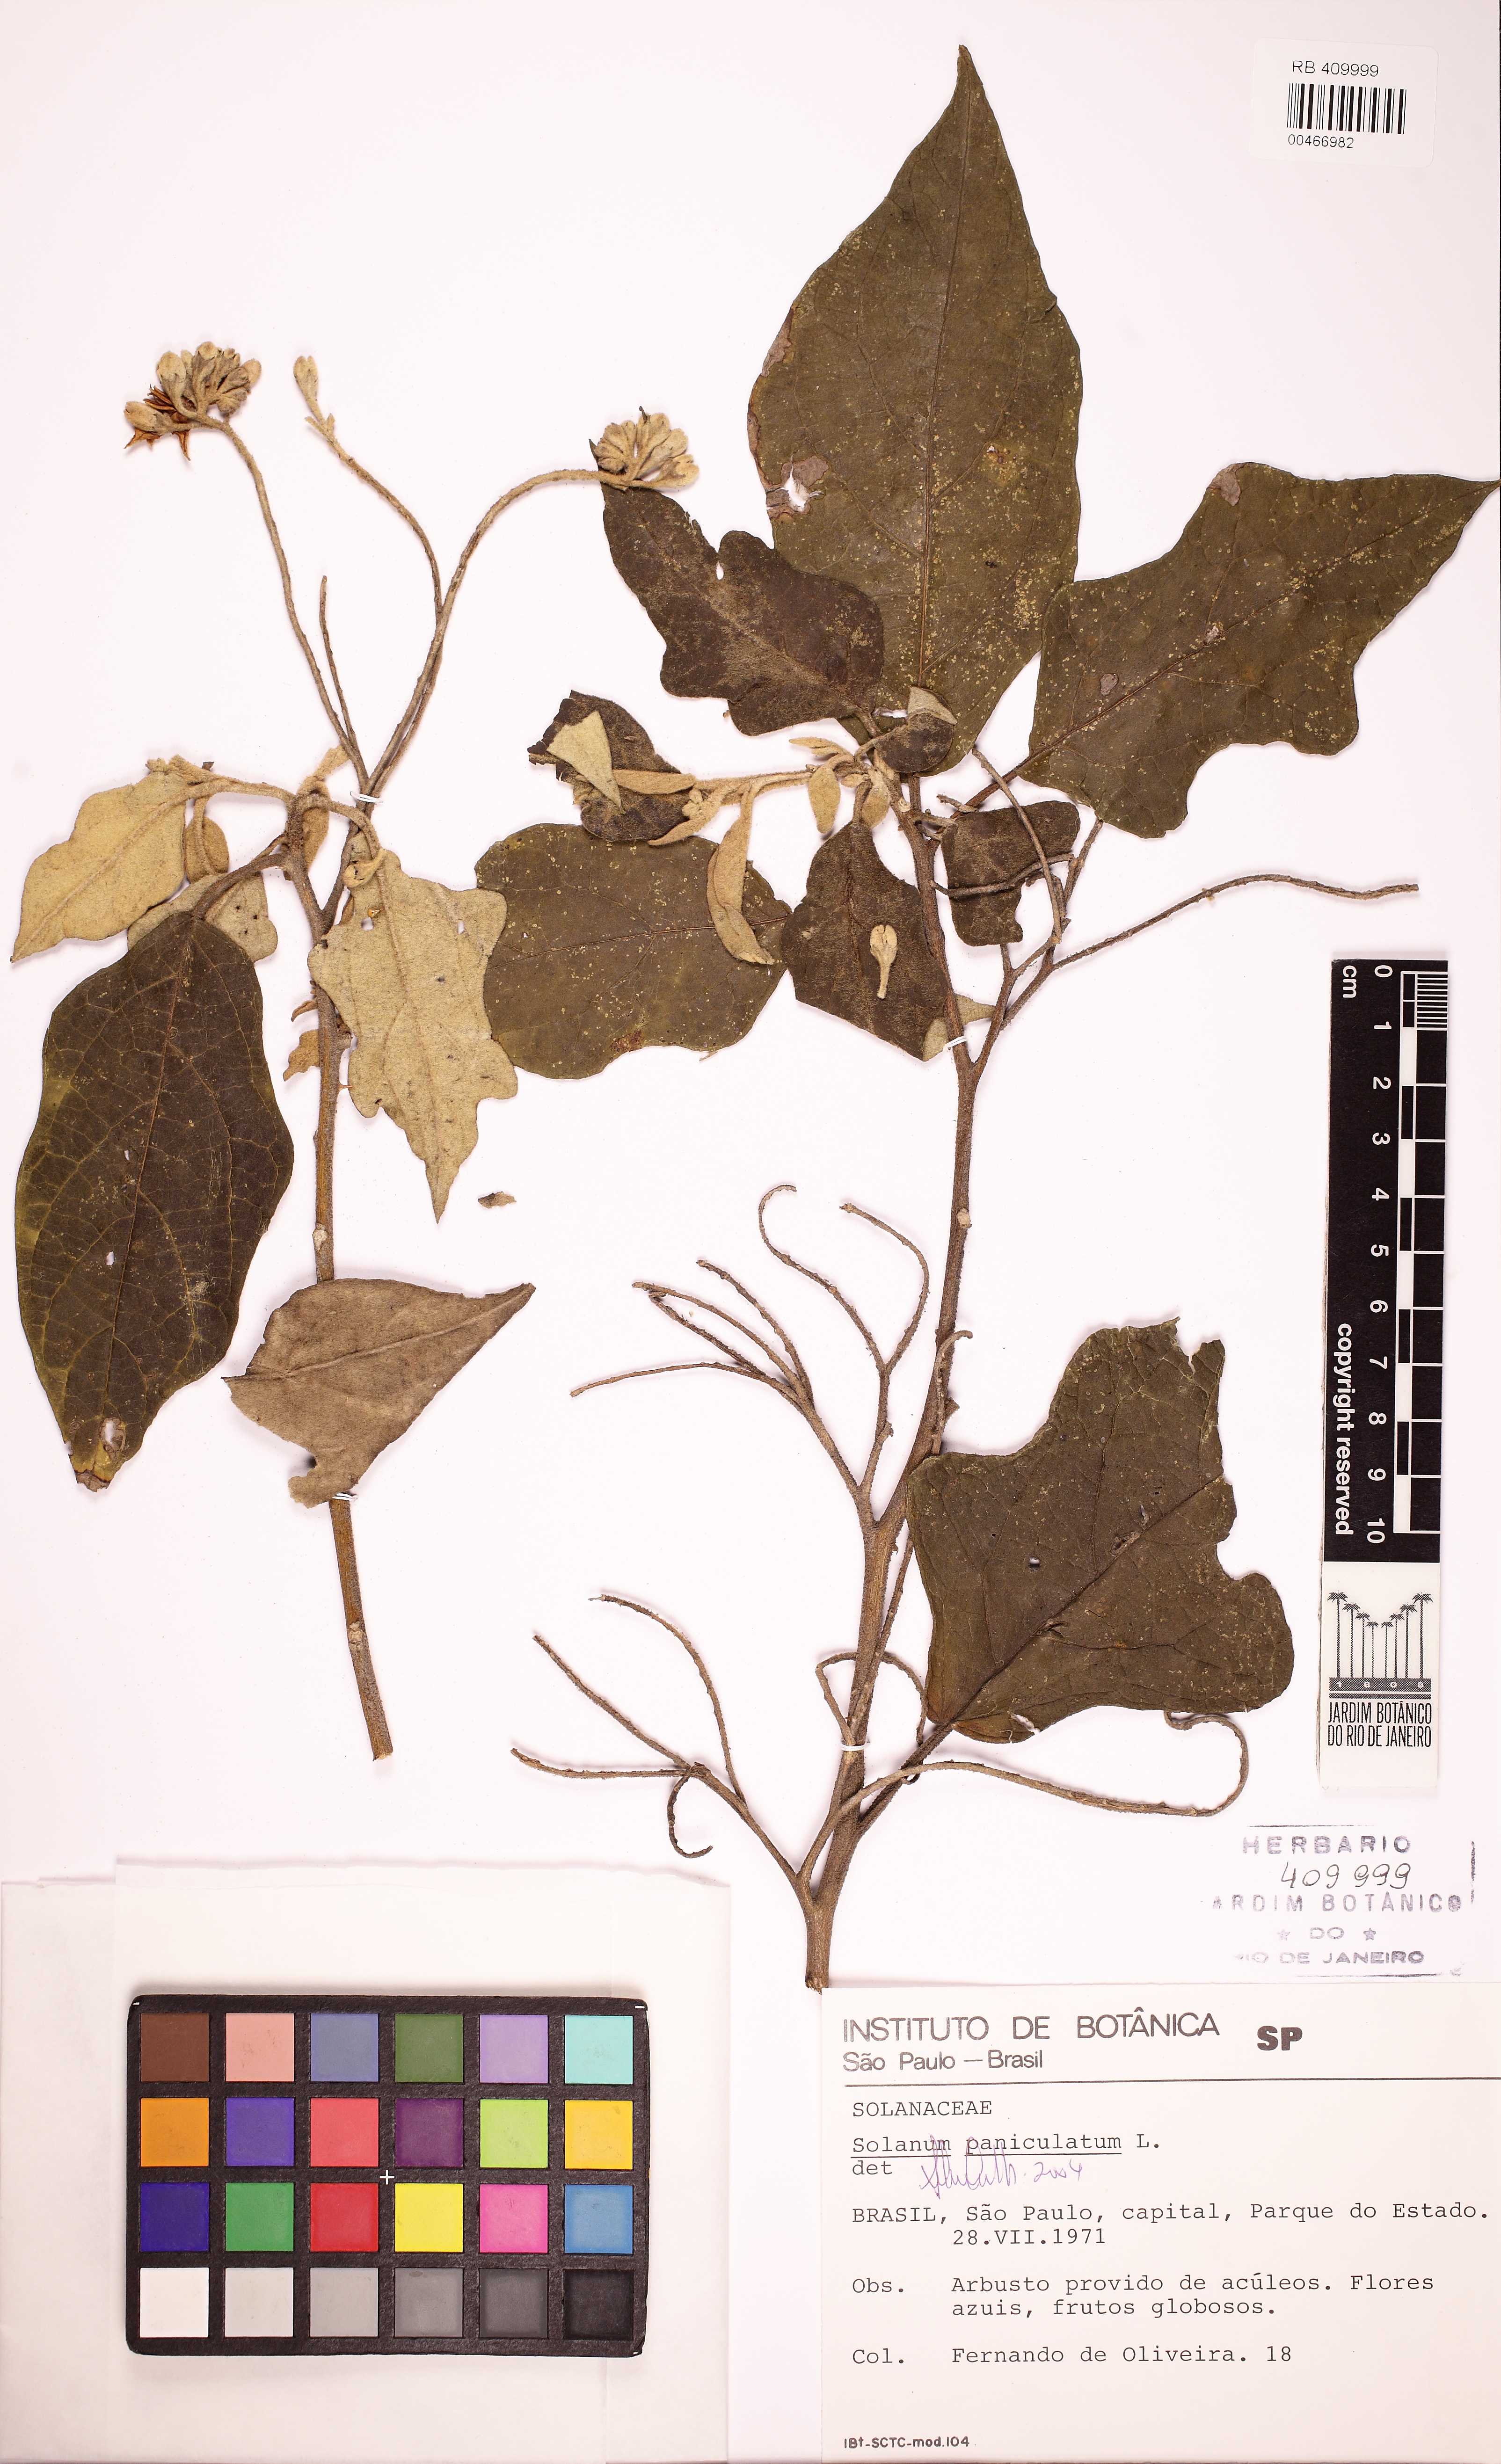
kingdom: Plantae
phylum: Tracheophyta
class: Magnoliopsida
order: Solanales
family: Solanaceae
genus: Solanum
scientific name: Solanum paniculatum
